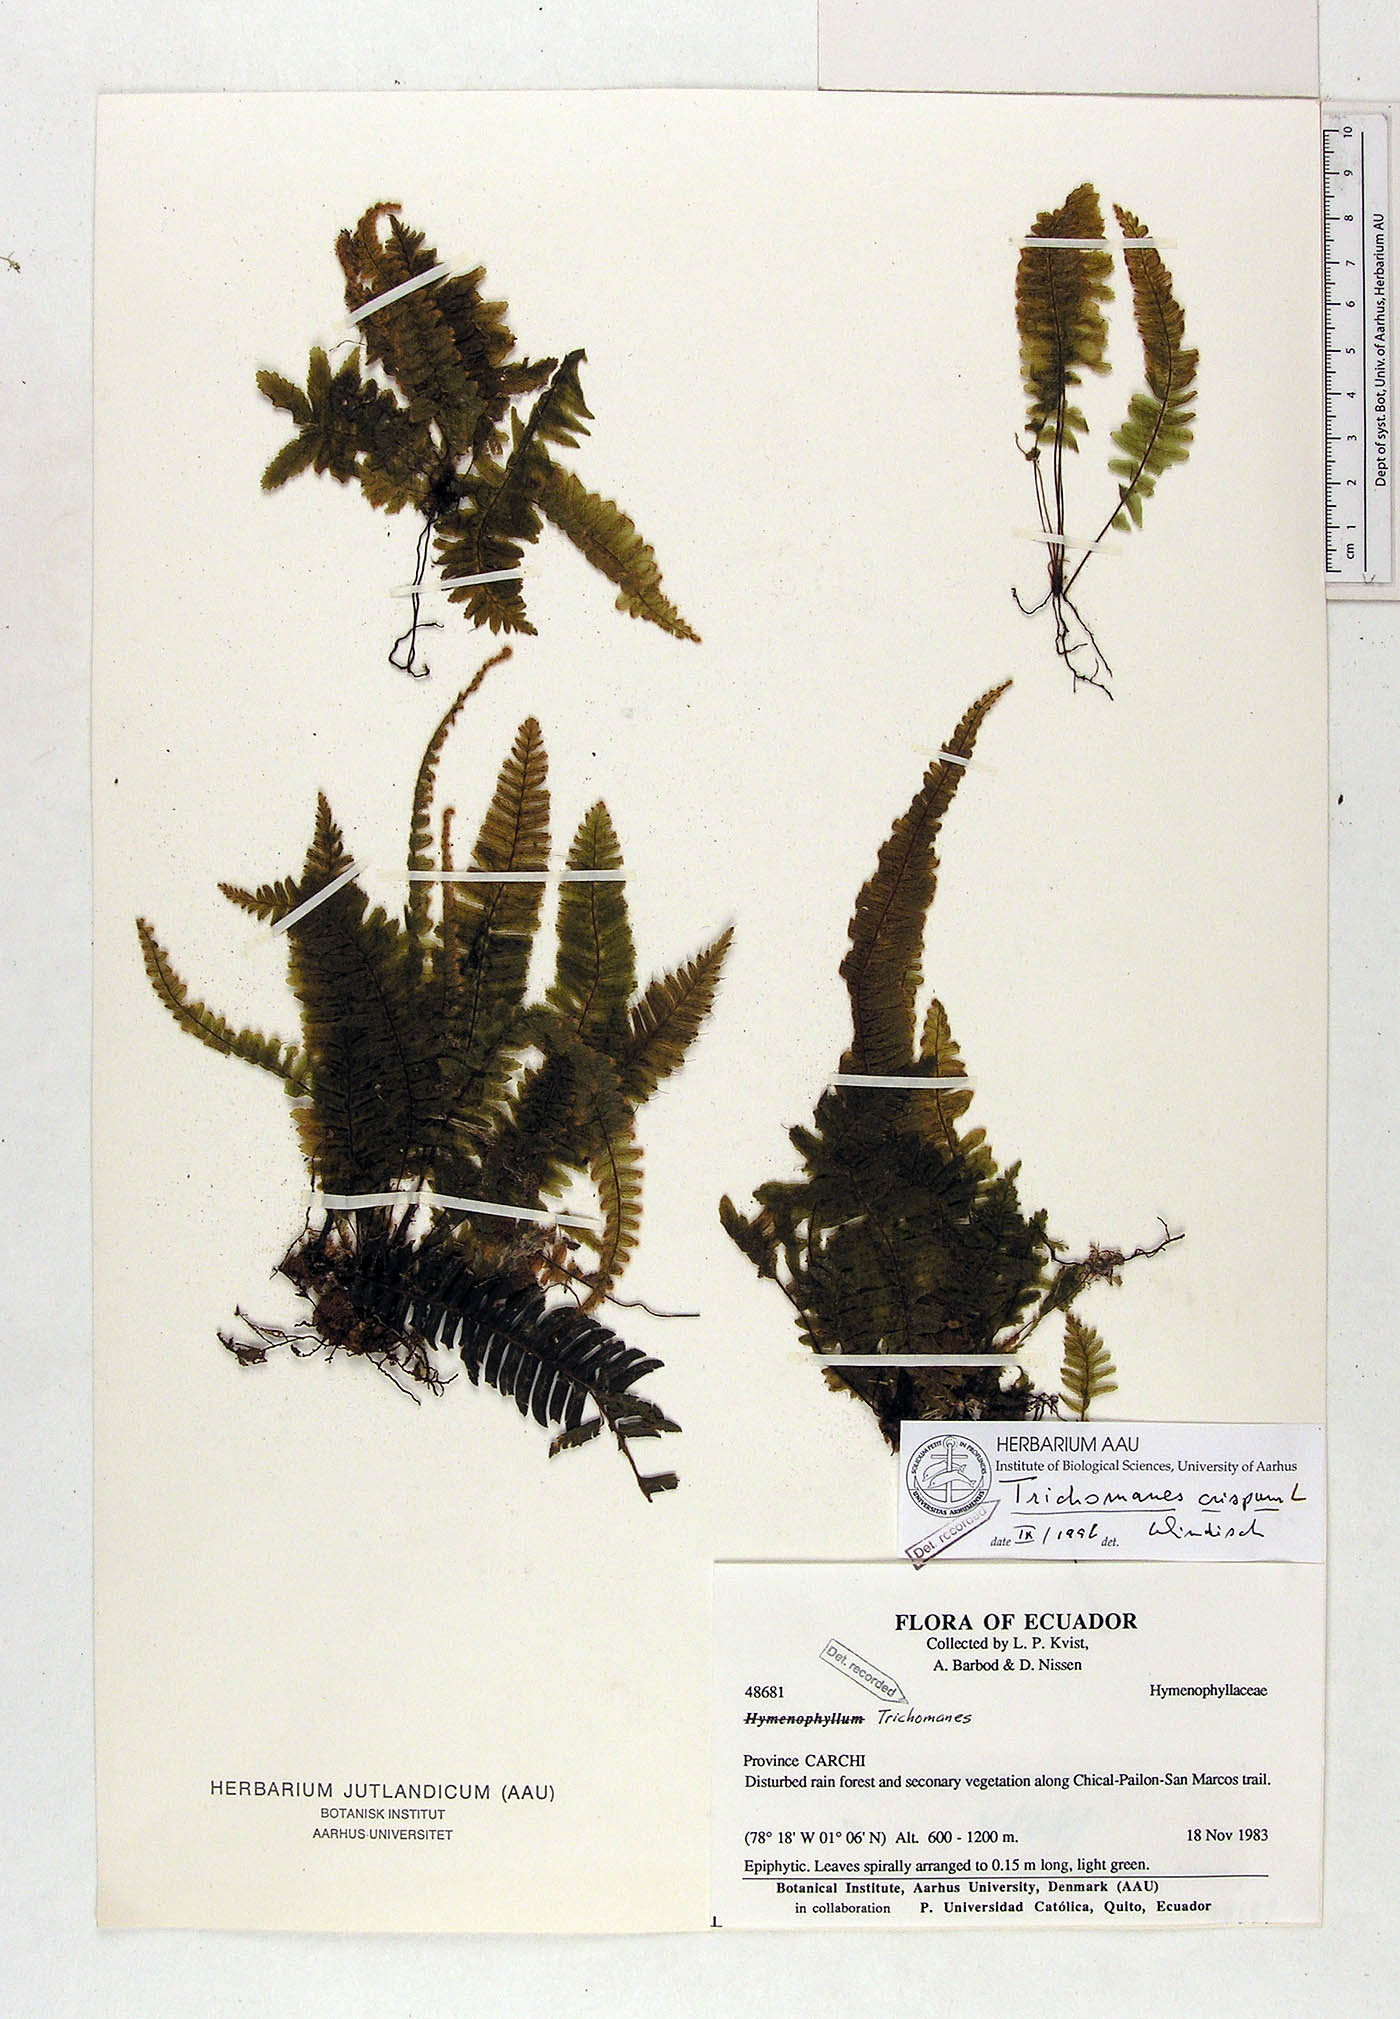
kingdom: Plantae
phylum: Tracheophyta
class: Polypodiopsida
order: Hymenophyllales
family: Hymenophyllaceae
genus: Trichomanes
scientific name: Trichomanes crispum
